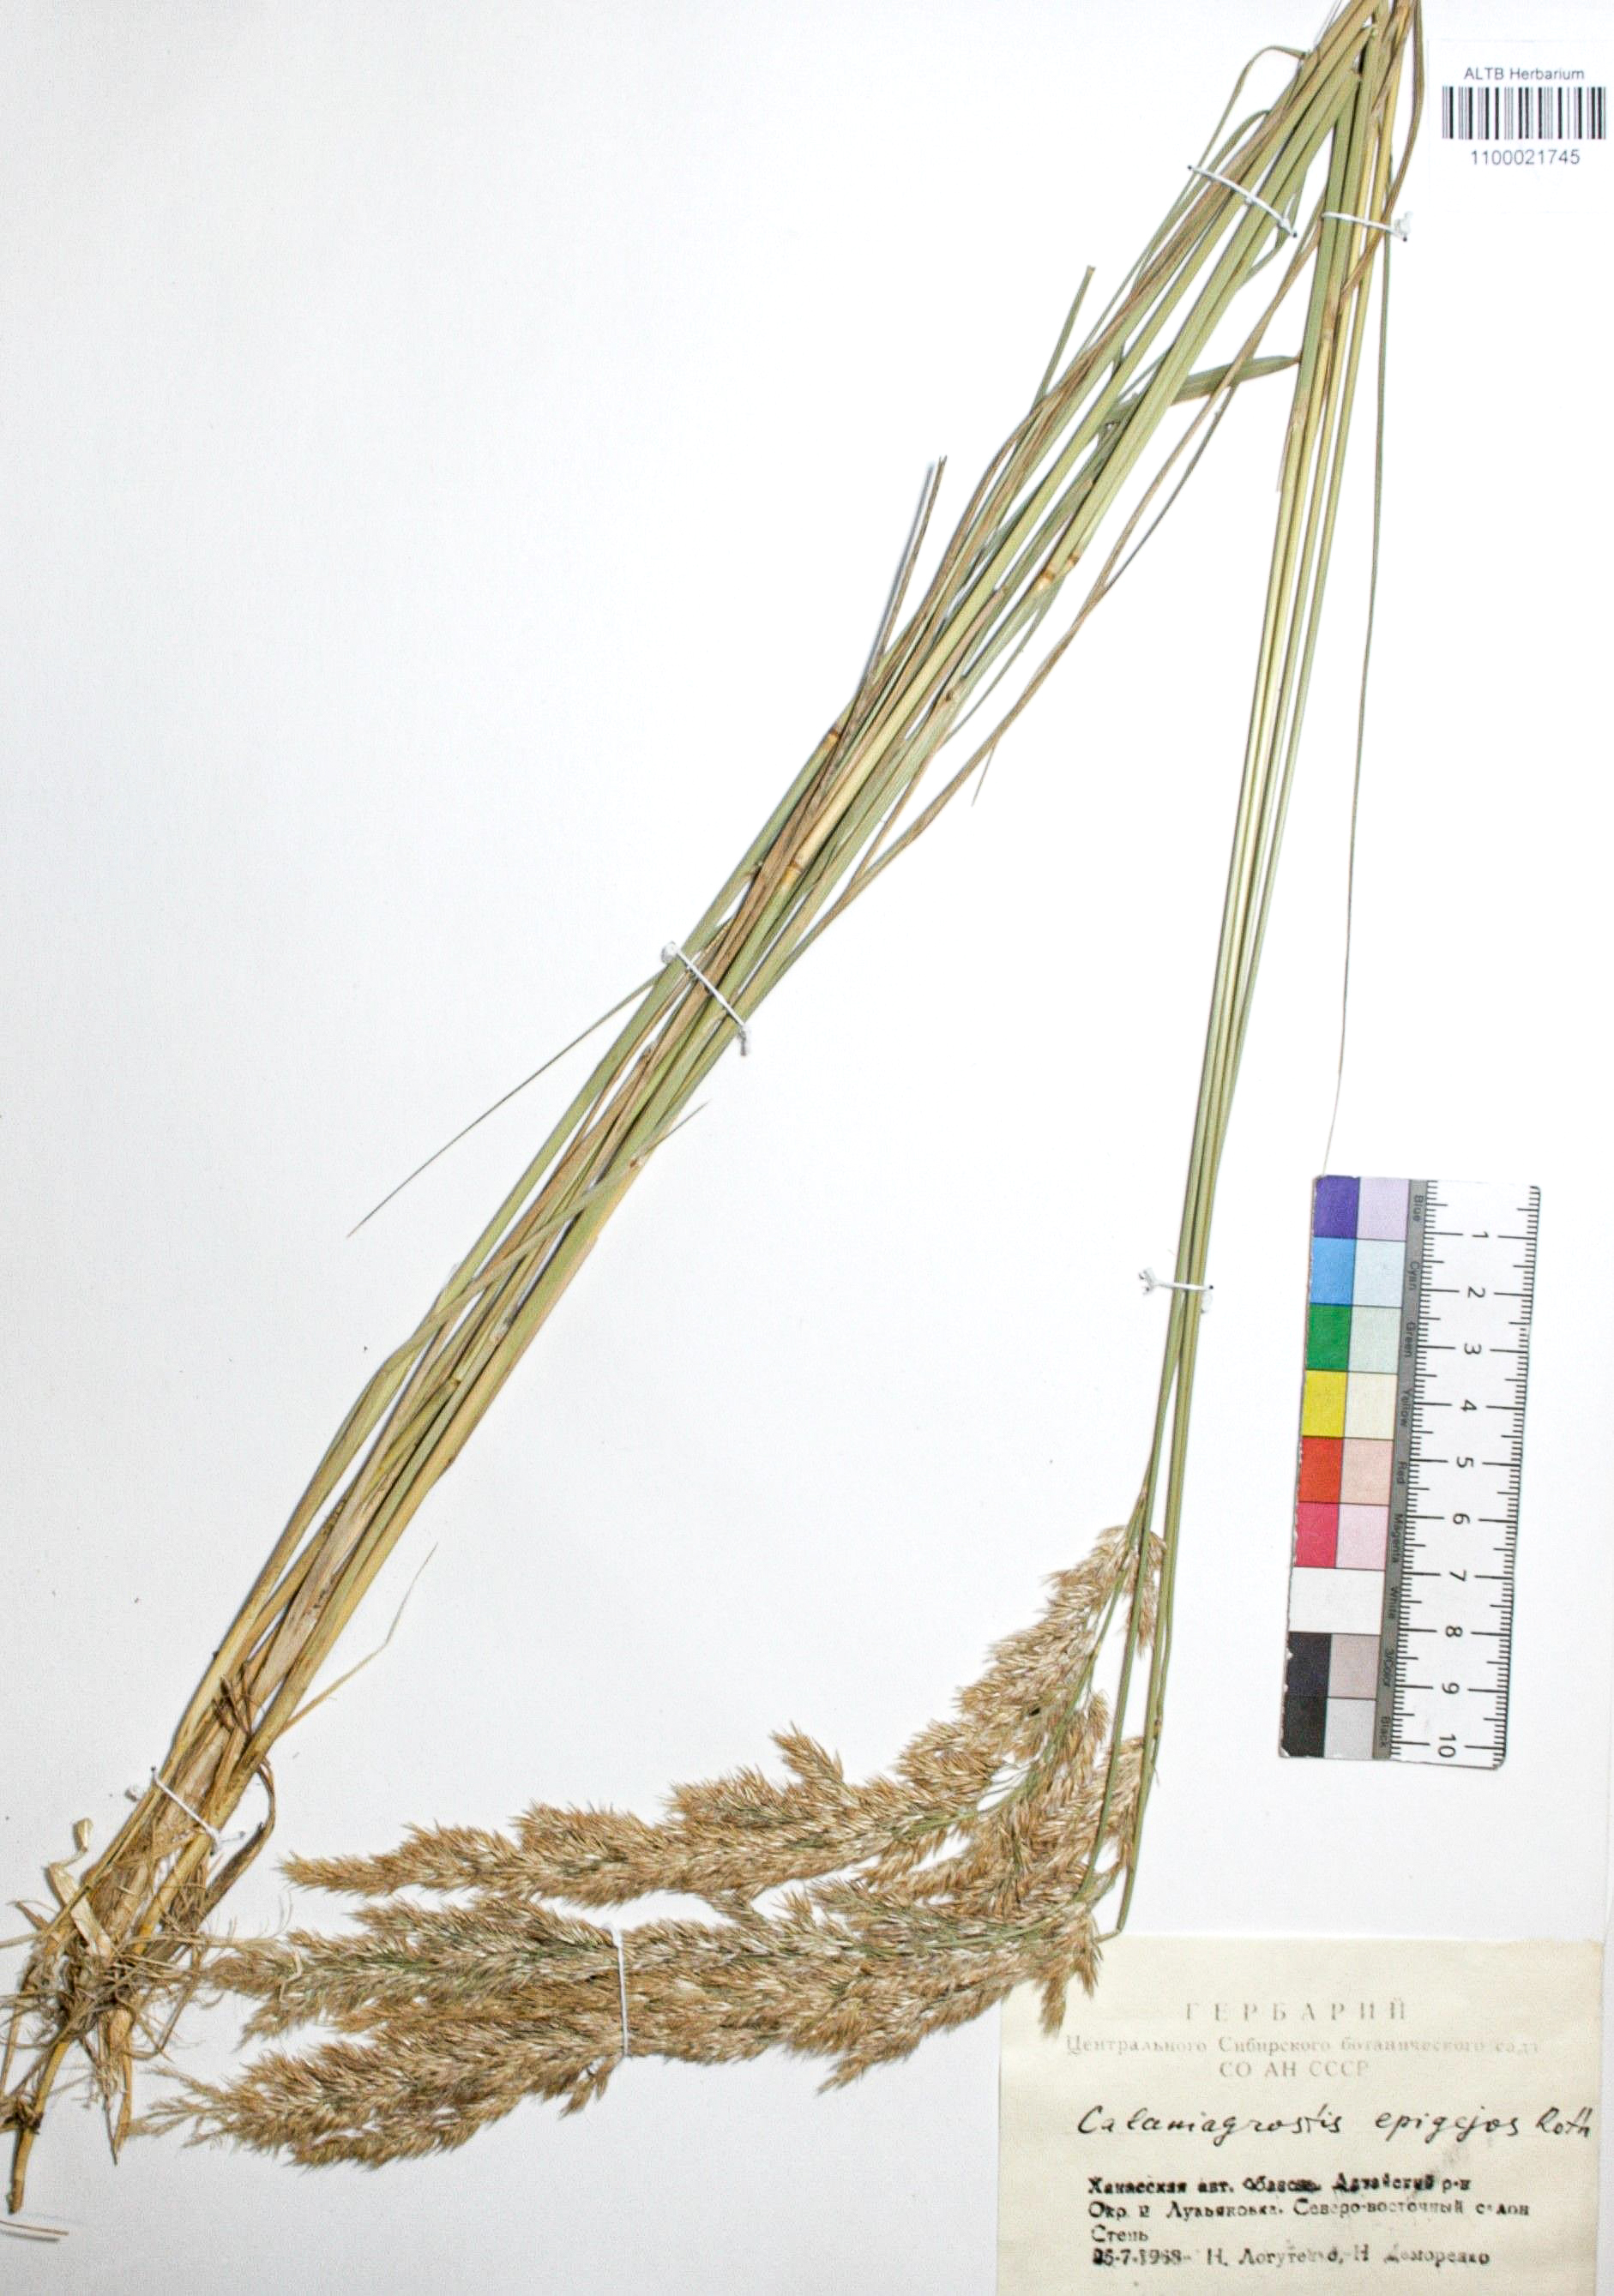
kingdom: Plantae
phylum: Tracheophyta
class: Liliopsida
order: Poales
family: Poaceae
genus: Calamagrostis
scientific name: Calamagrostis epigejos
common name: Wood small-reed
